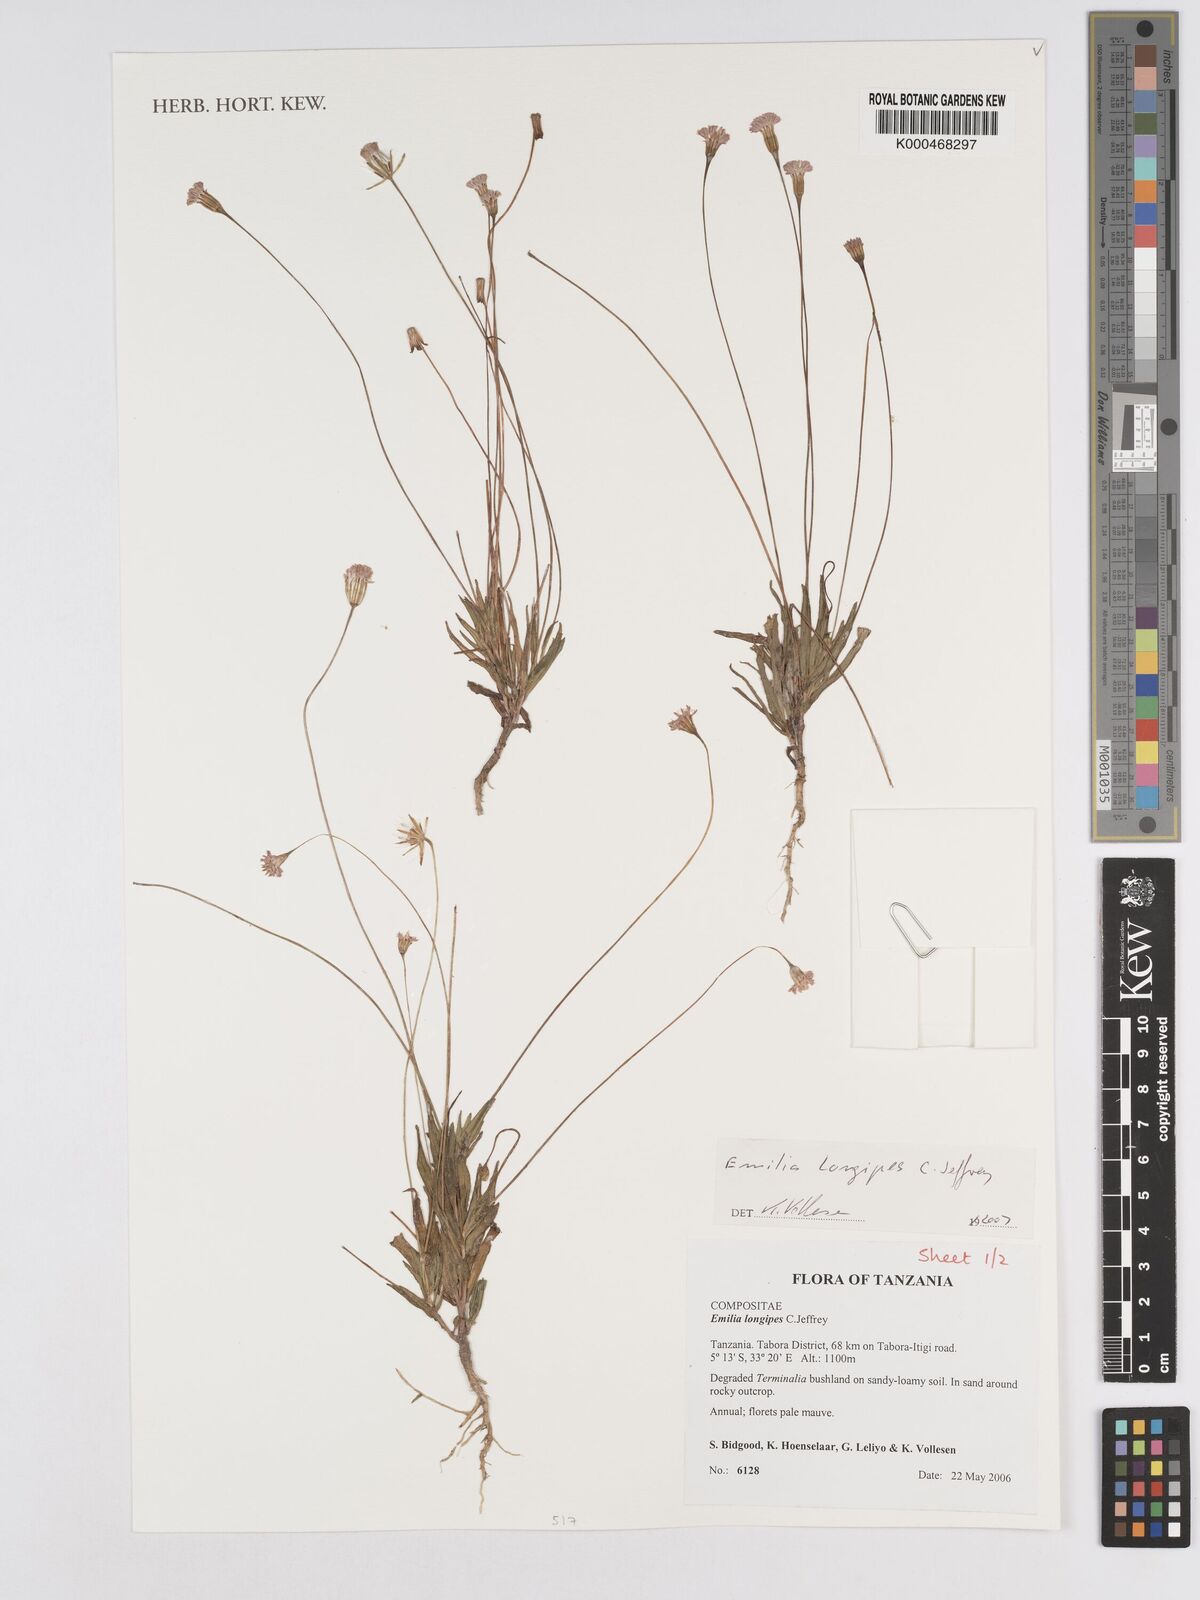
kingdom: Plantae
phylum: Tracheophyta
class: Magnoliopsida
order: Asterales
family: Asteraceae
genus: Emilia
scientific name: Emilia longipes
